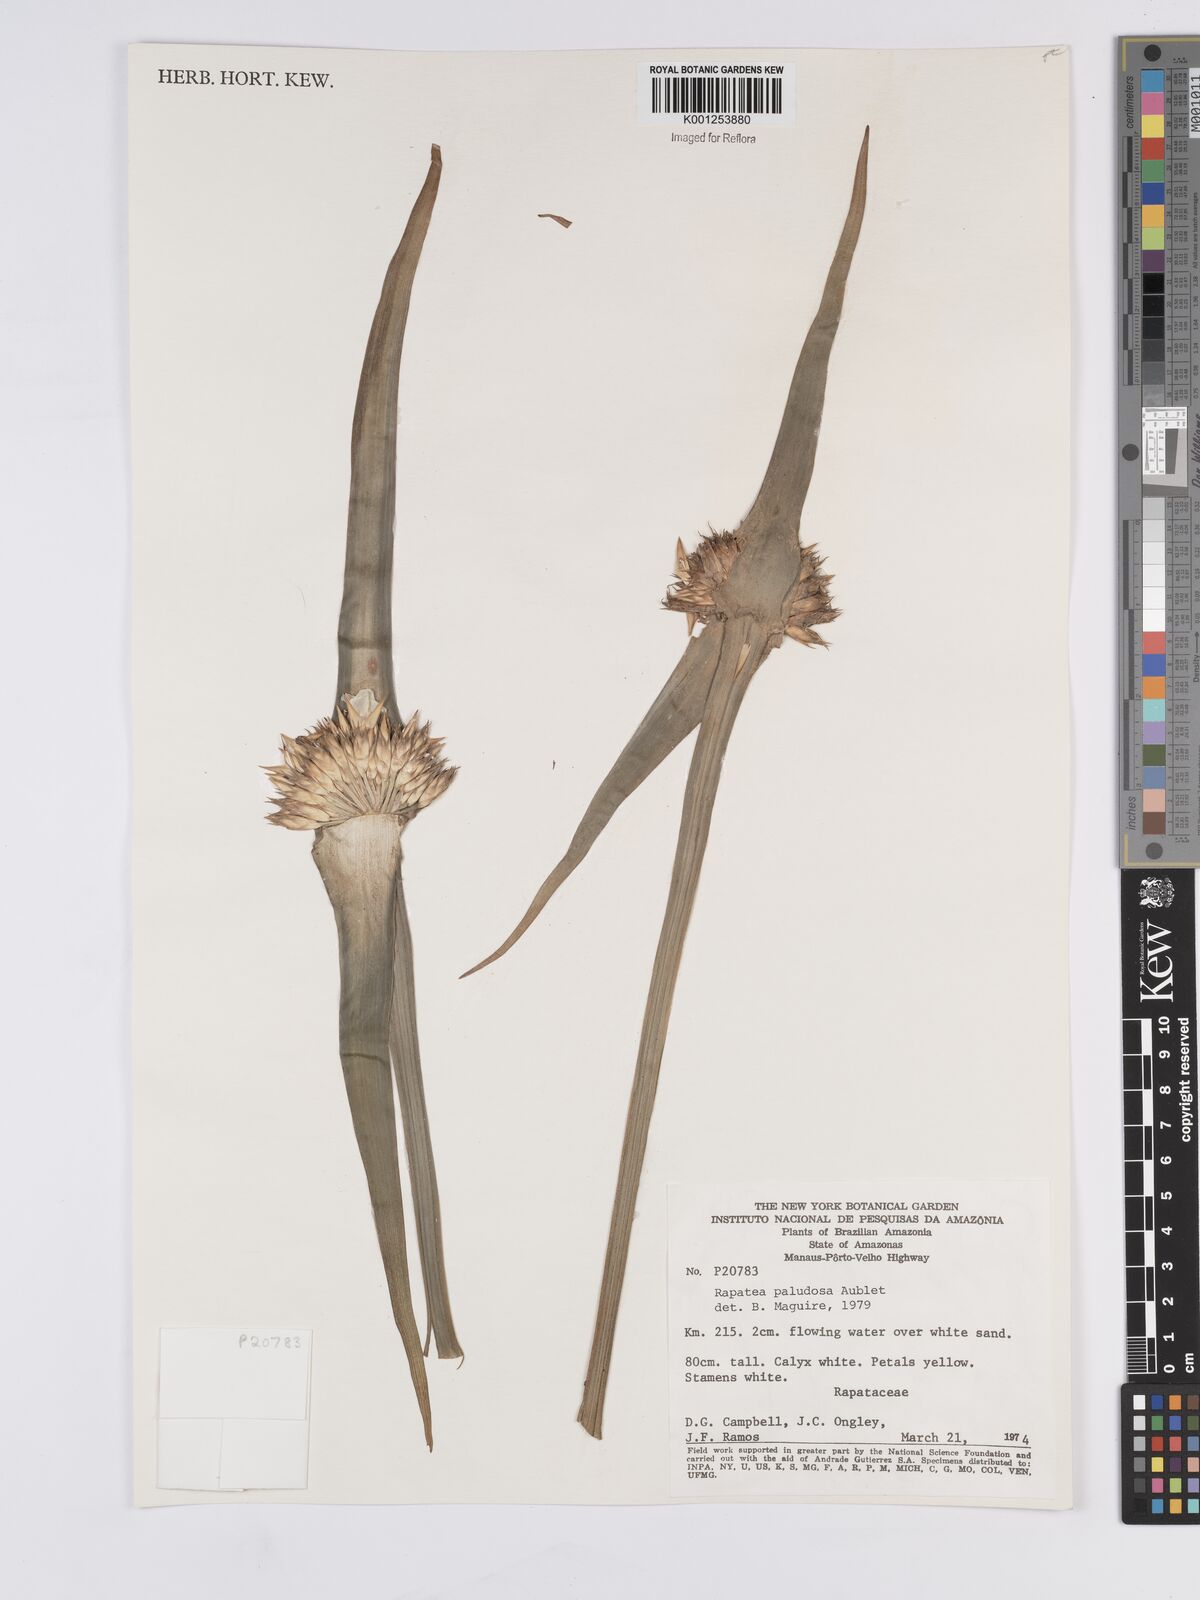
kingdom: Plantae
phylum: Tracheophyta
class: Liliopsida
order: Poales
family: Rapateaceae
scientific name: Rapateaceae
